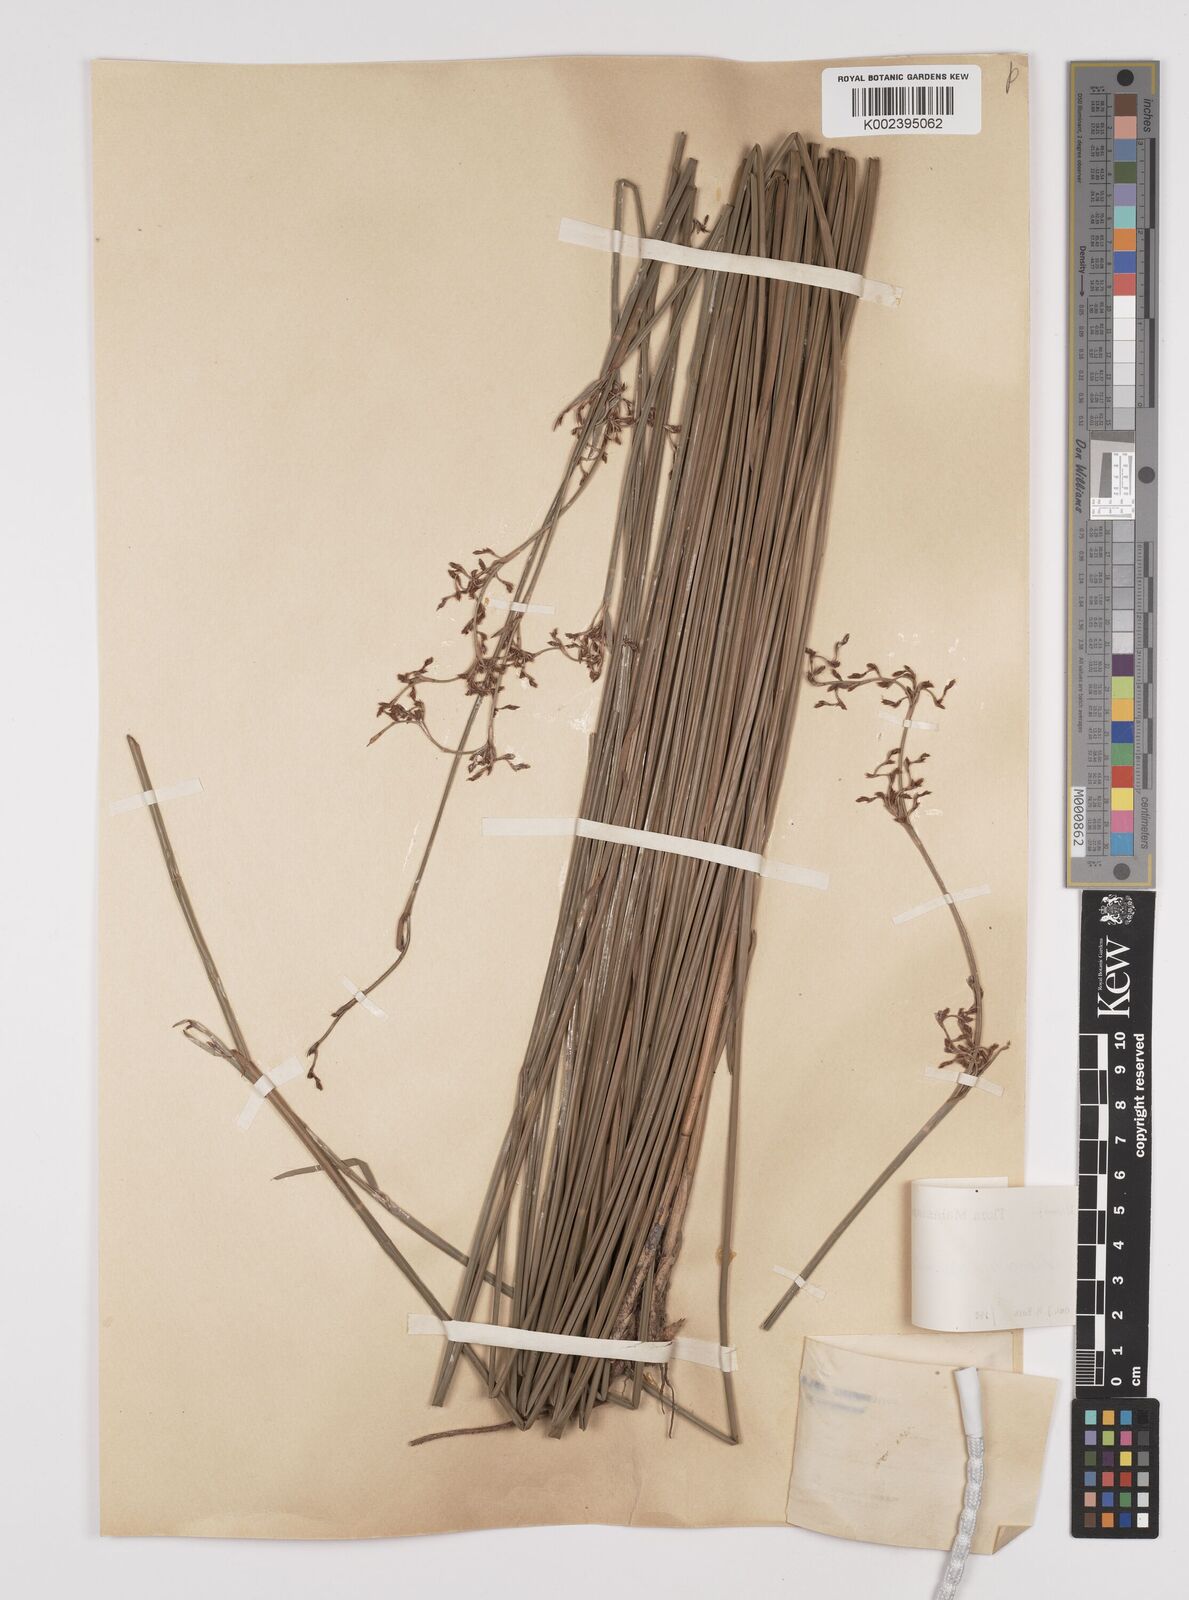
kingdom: Plantae
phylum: Tracheophyta
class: Liliopsida
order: Poales
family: Cyperaceae
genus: Machaerina
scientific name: Machaerina disticha
